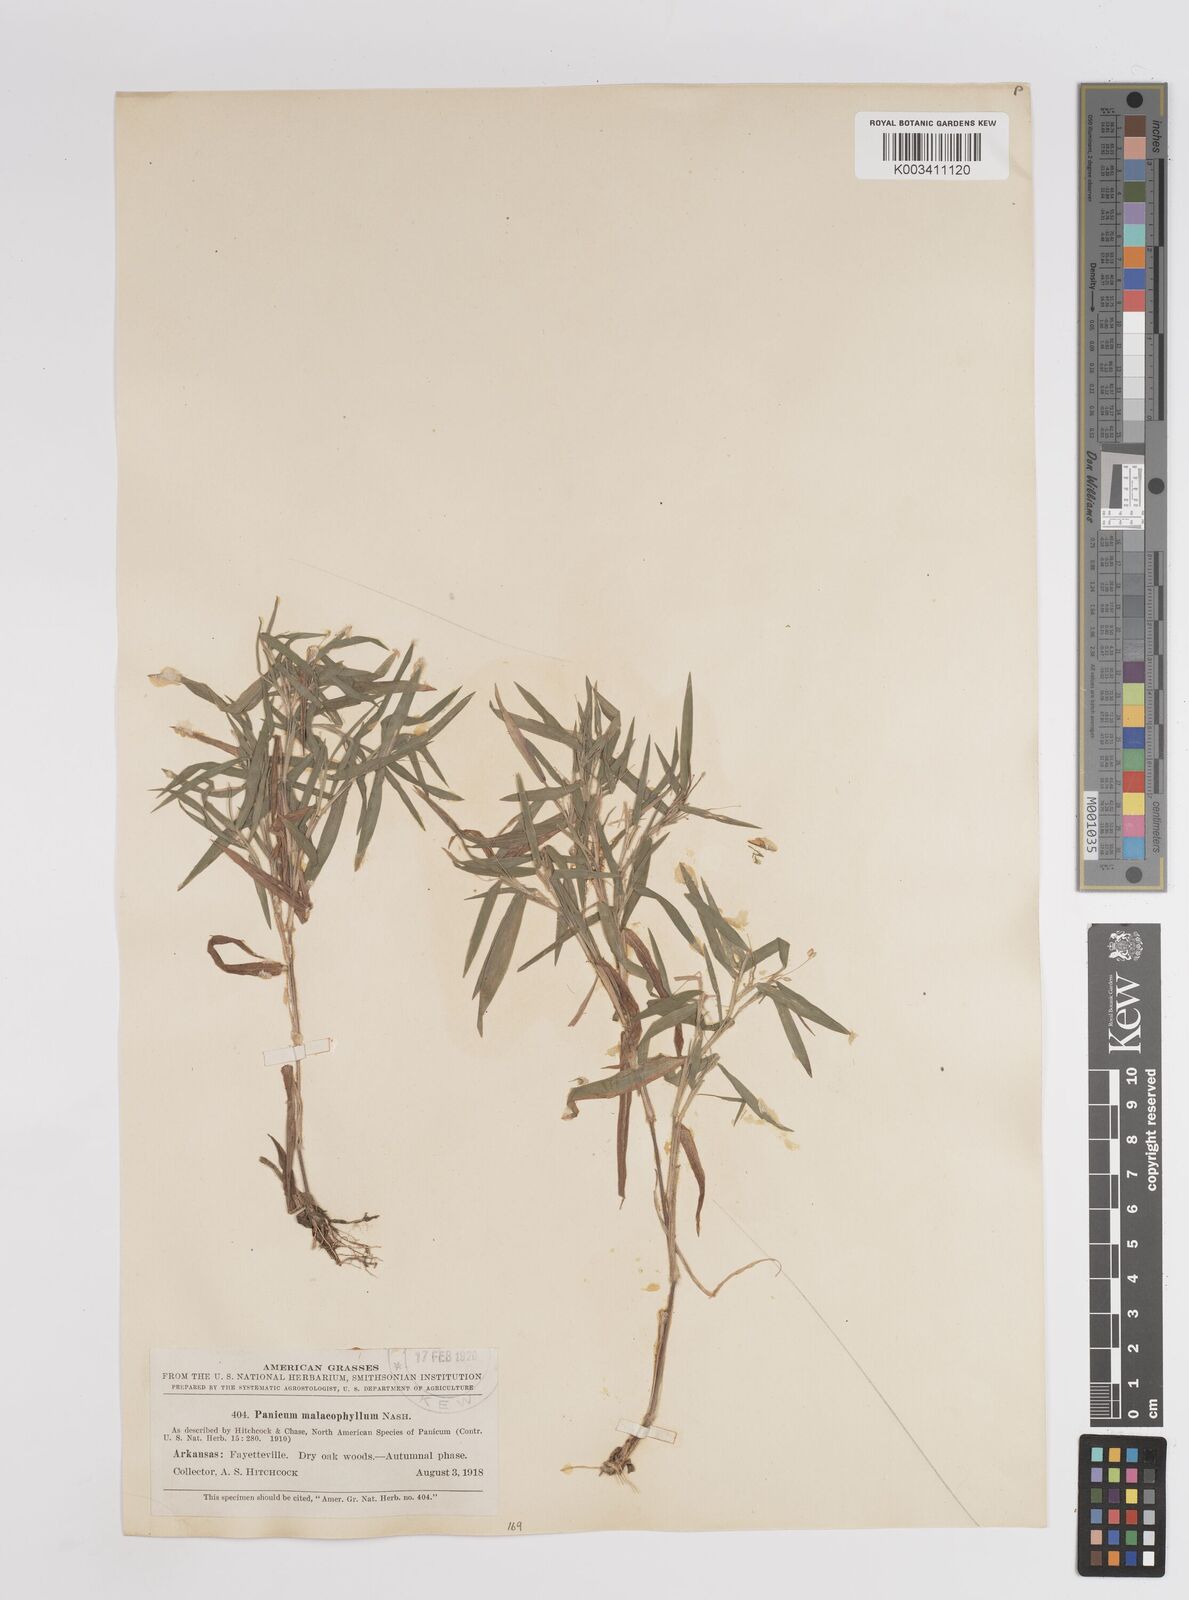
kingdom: Plantae
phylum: Tracheophyta
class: Liliopsida
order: Poales
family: Poaceae
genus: Dichanthelium
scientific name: Dichanthelium malacophyllum
